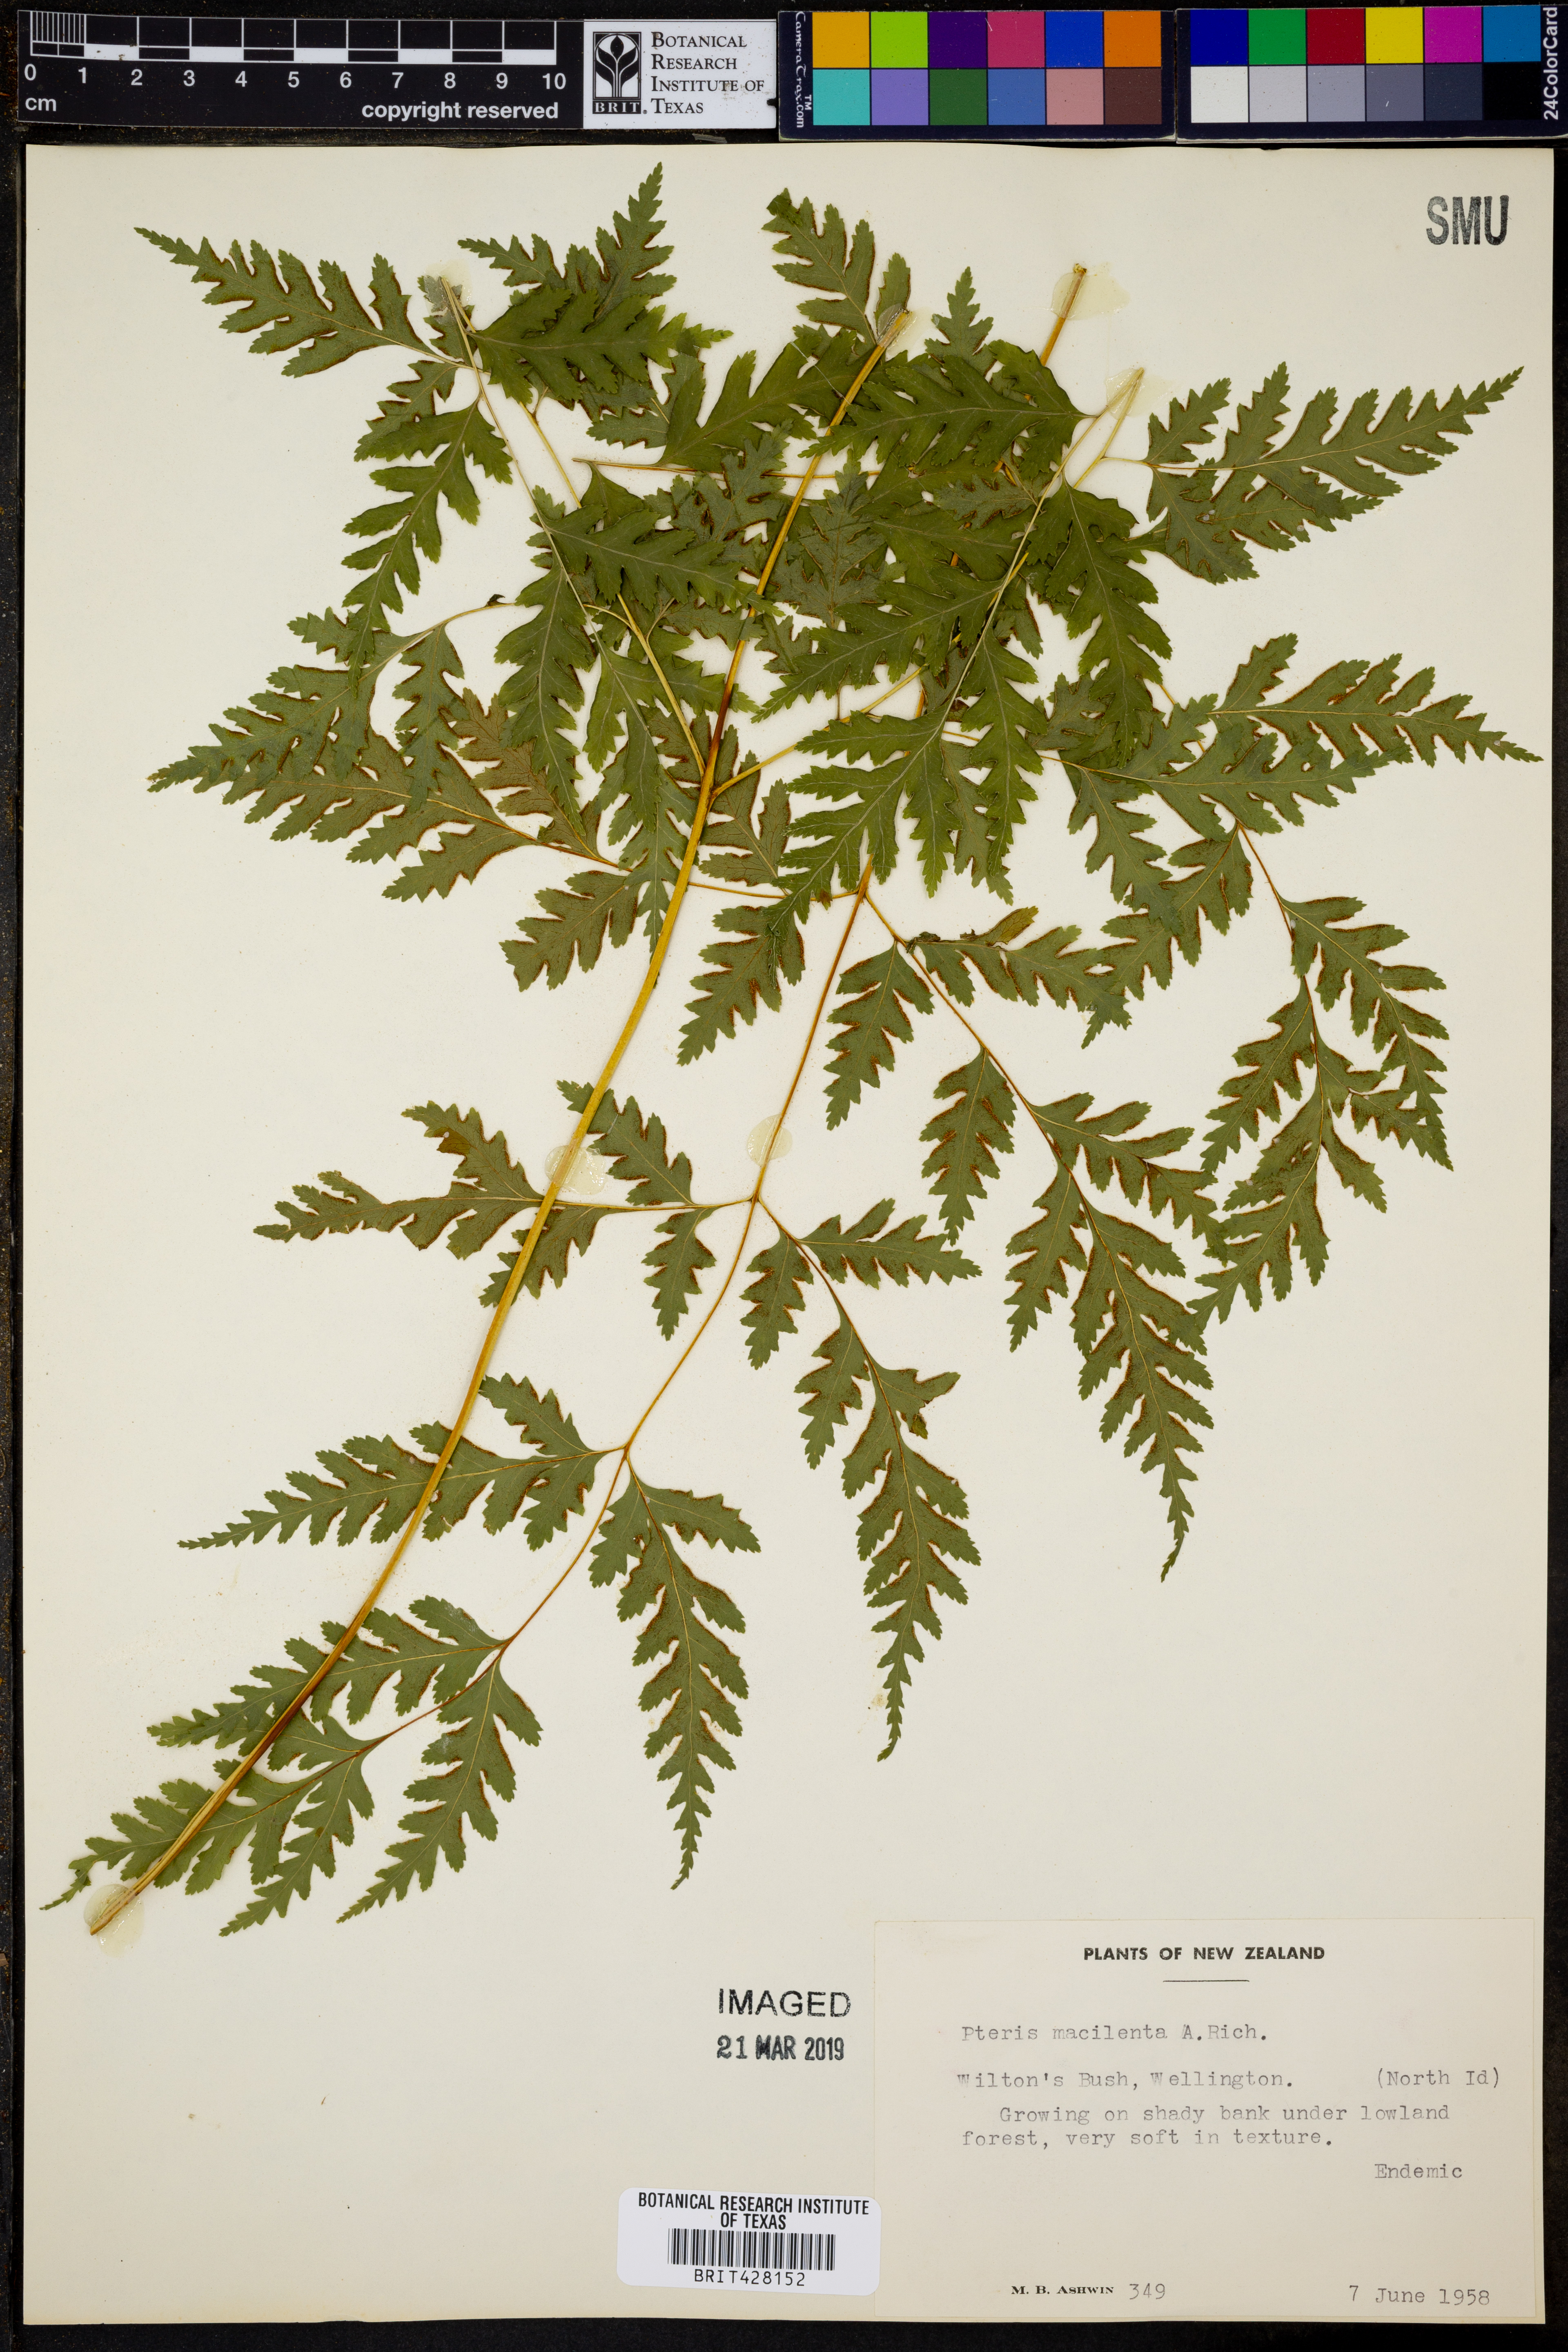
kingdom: Plantae
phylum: Tracheophyta
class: Polypodiopsida
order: Polypodiales
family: Pteridaceae
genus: Pteris
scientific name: Pteris macilenta
